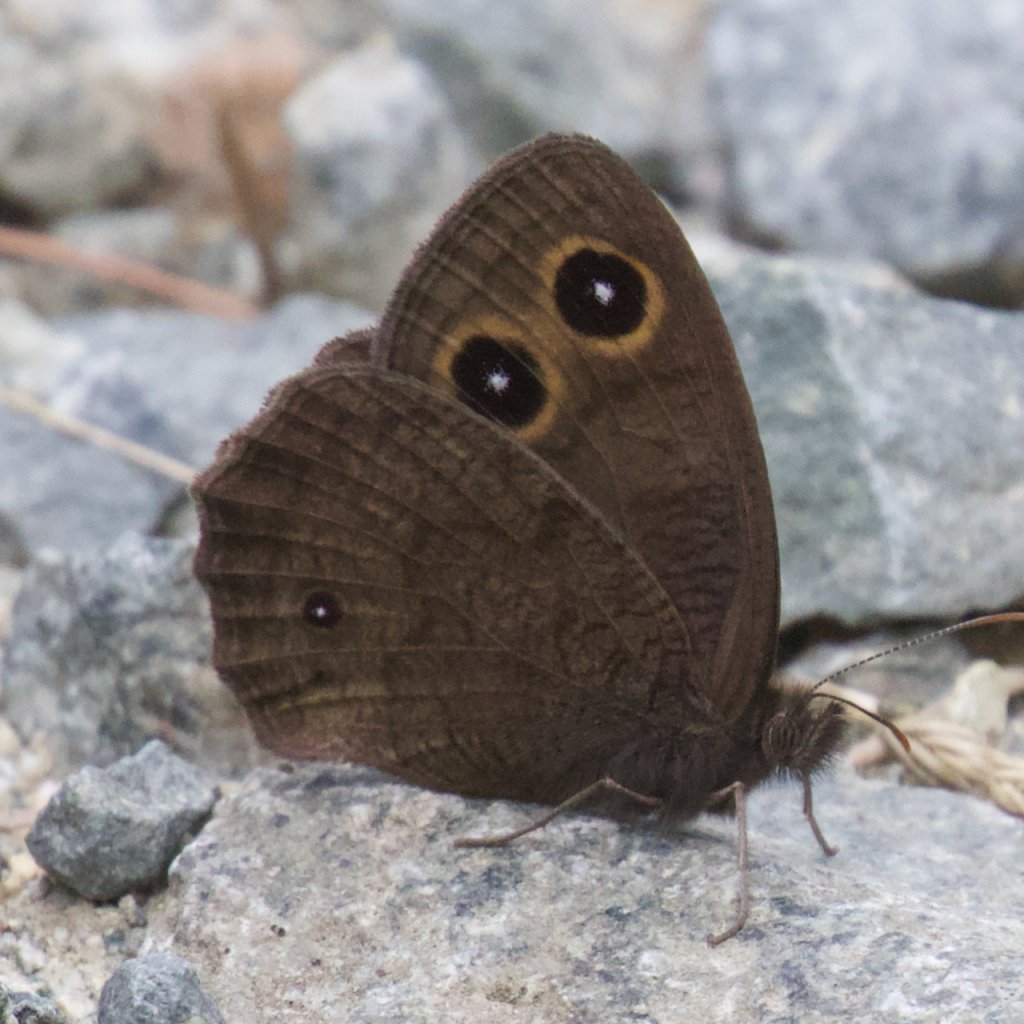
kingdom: Animalia
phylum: Arthropoda
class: Insecta
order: Lepidoptera
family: Nymphalidae
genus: Cercyonis
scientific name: Cercyonis pegala
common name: Common Wood-Nymph
